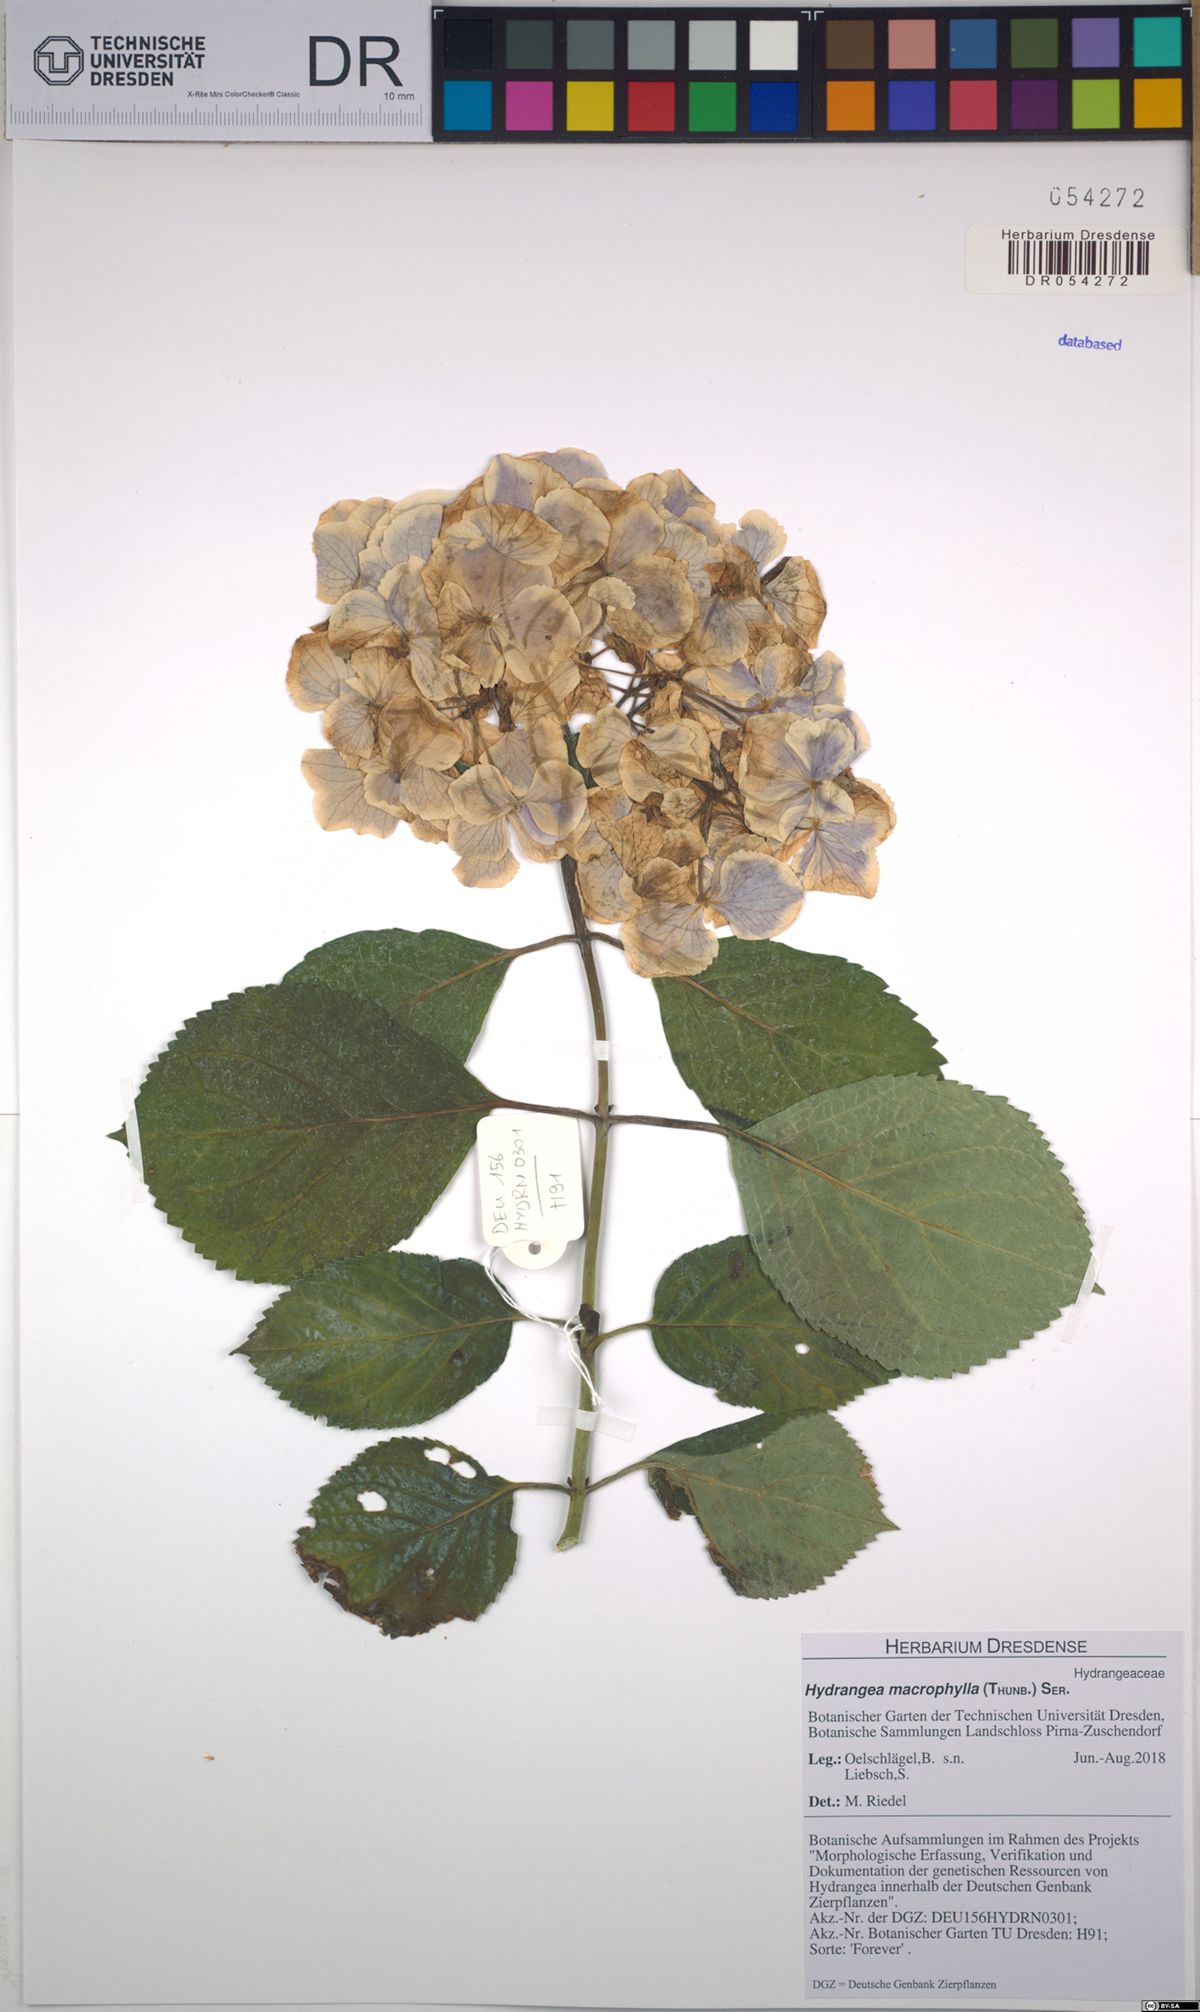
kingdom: Plantae
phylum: Tracheophyta
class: Magnoliopsida
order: Cornales
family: Hydrangeaceae
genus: Hydrangea
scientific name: Hydrangea macrophylla
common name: Hydrangea
